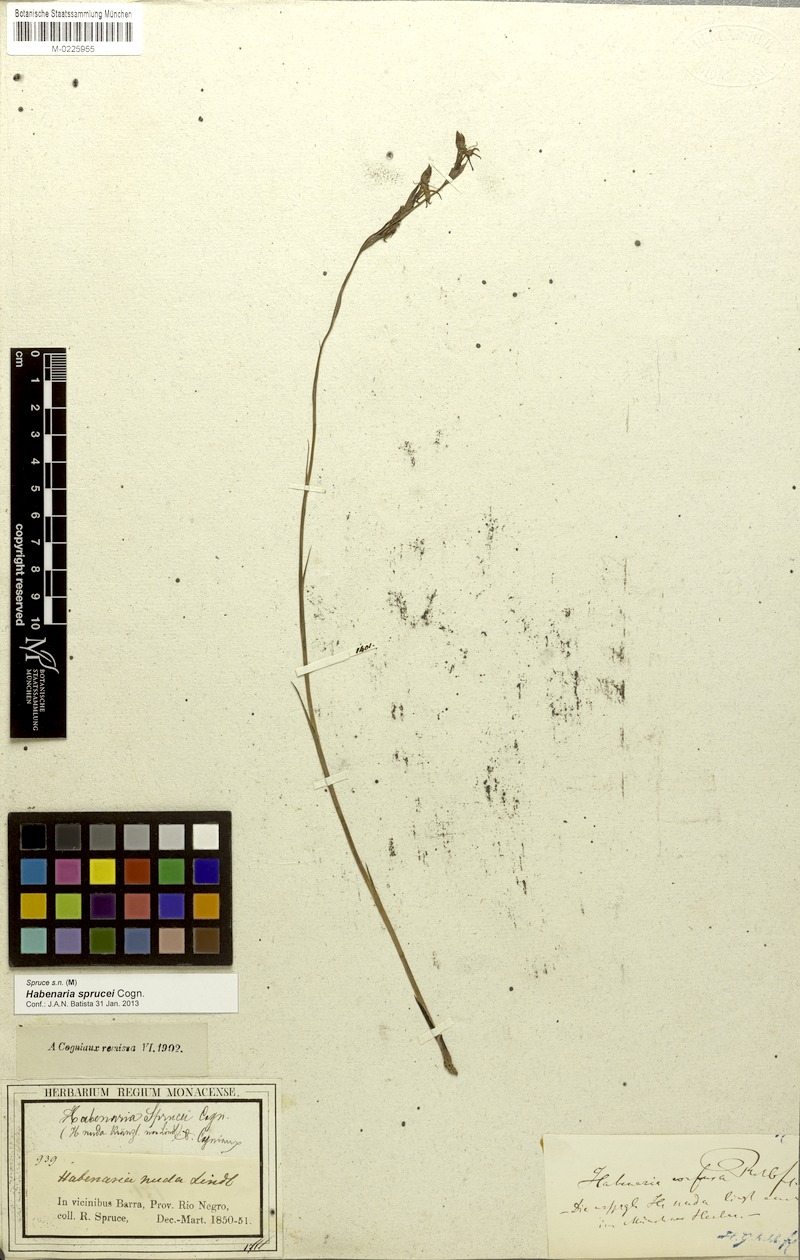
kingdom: Plantae
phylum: Tracheophyta
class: Liliopsida
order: Asparagales
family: Orchidaceae
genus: Habenaria
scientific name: Habenaria sprucei
